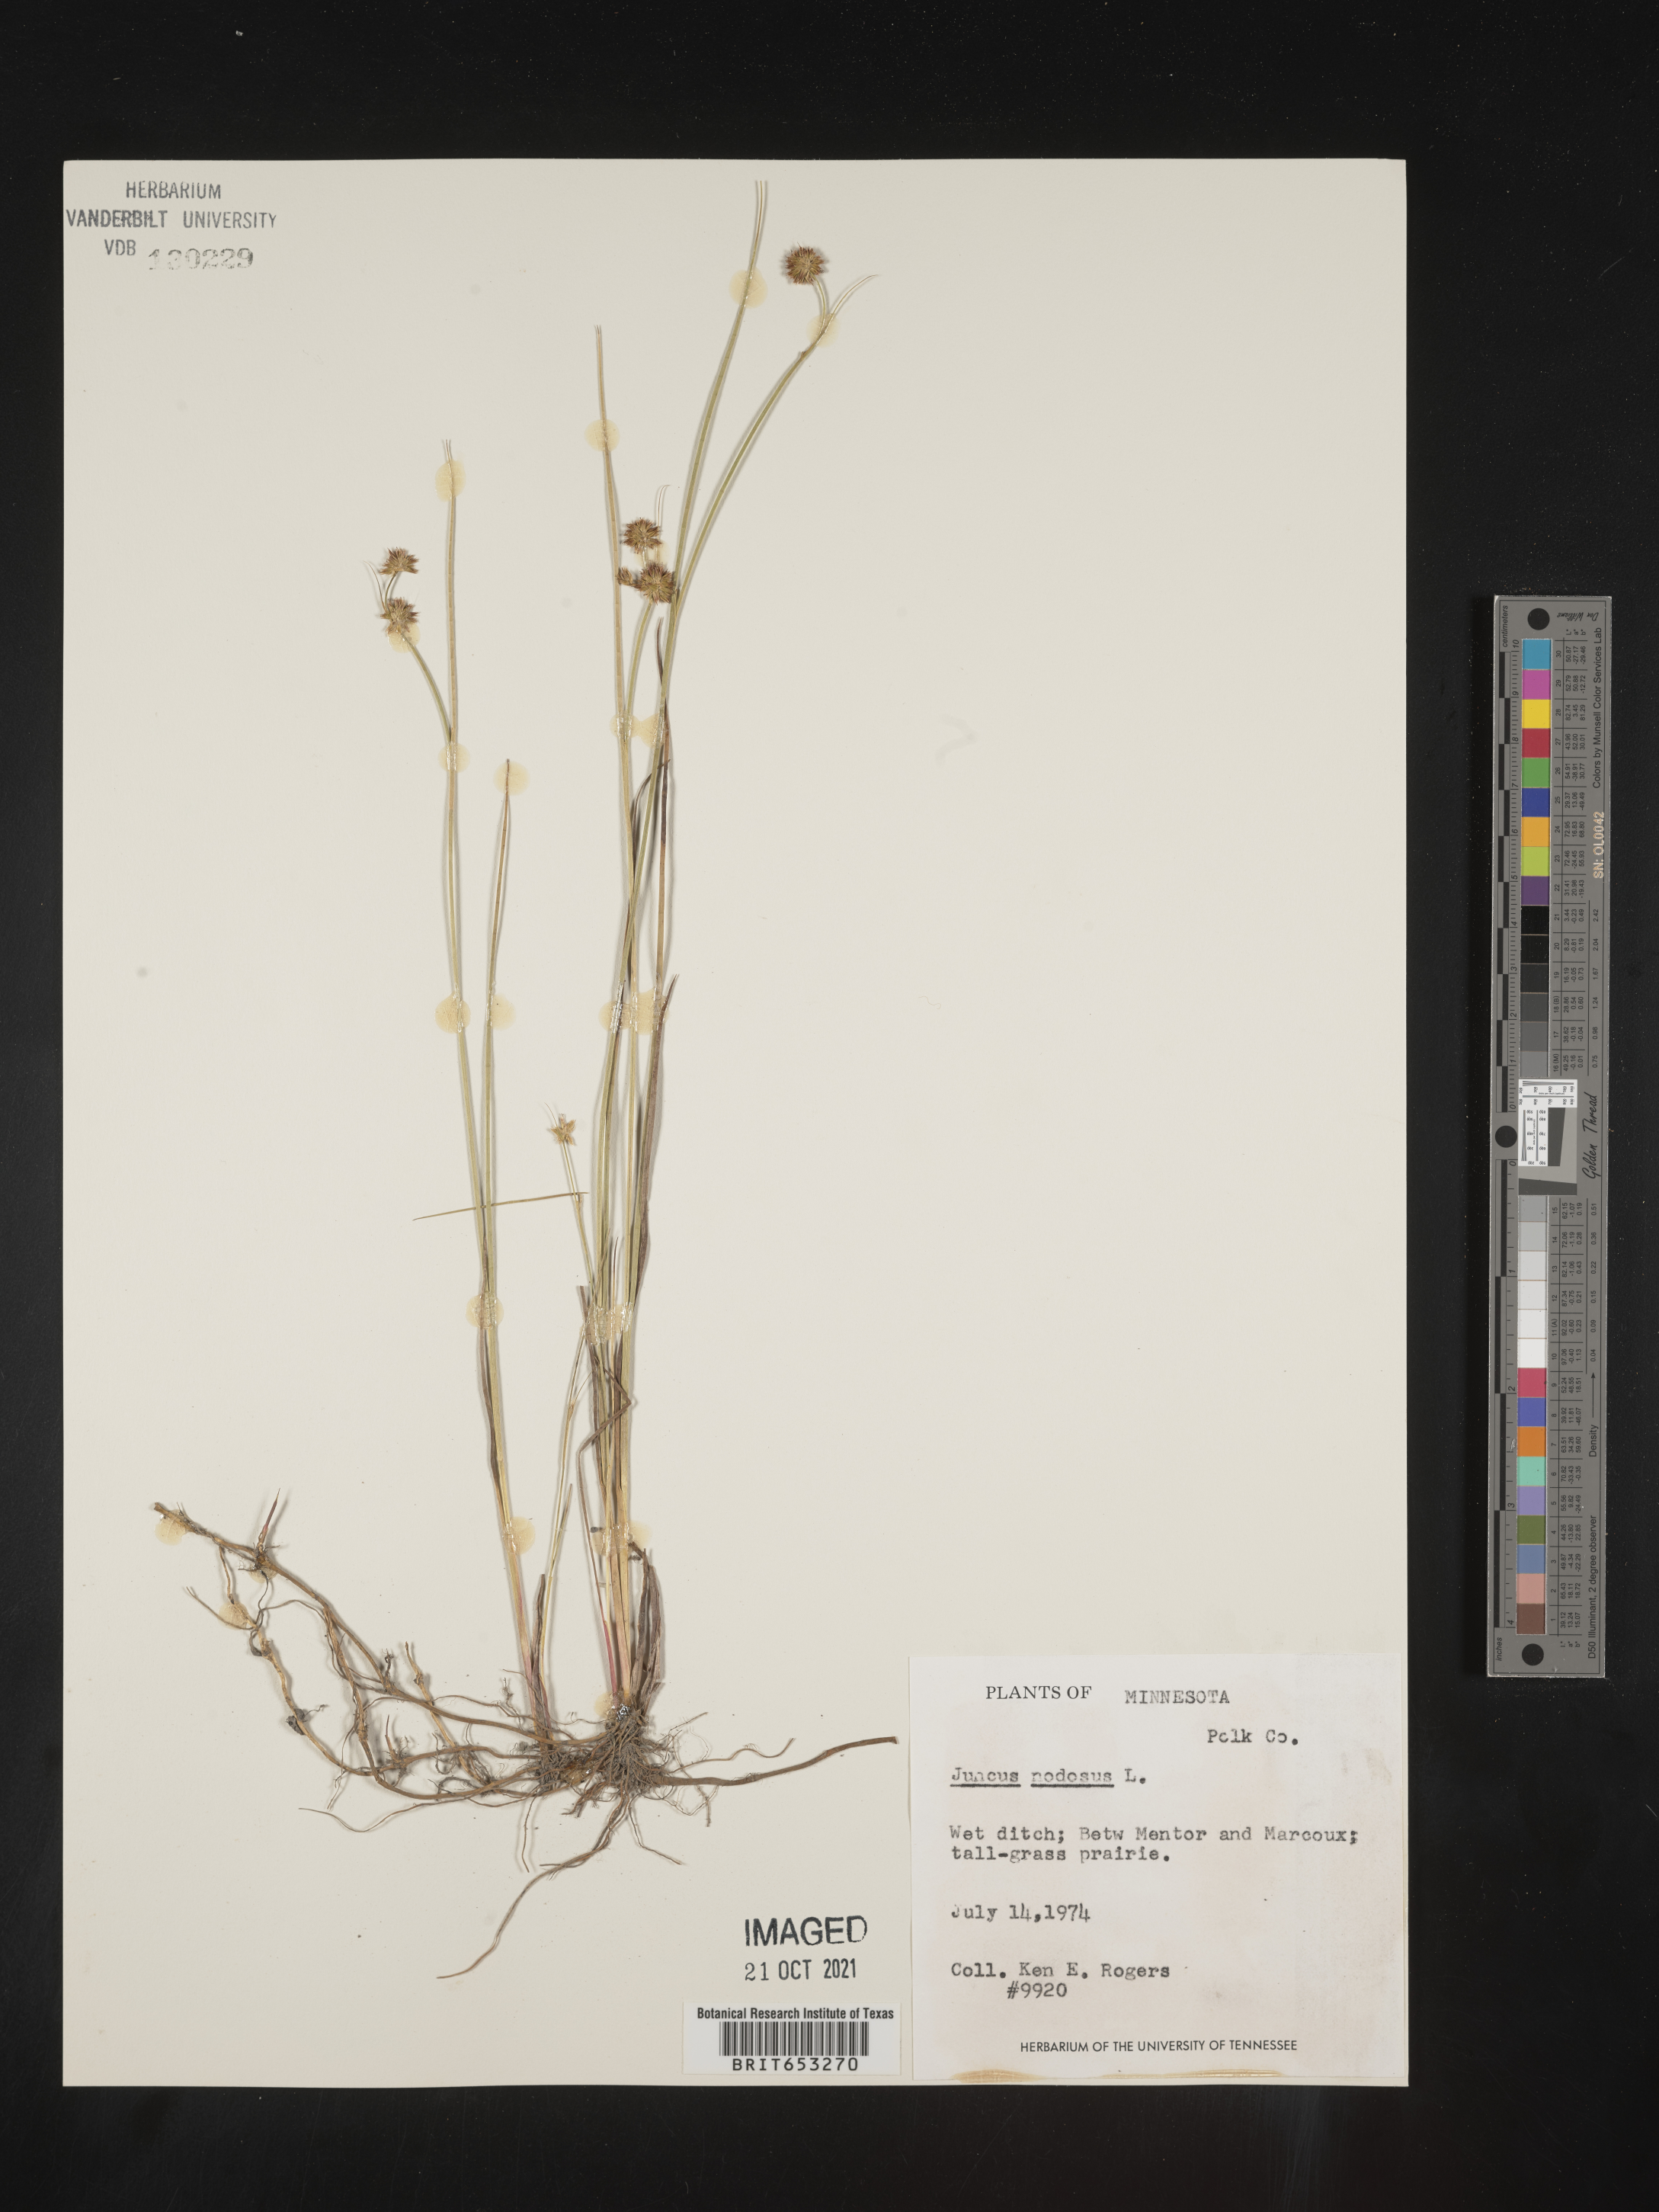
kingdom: Plantae
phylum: Tracheophyta
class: Liliopsida
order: Poales
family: Juncaceae
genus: Juncus
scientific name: Juncus nodosus
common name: Knotted rush
